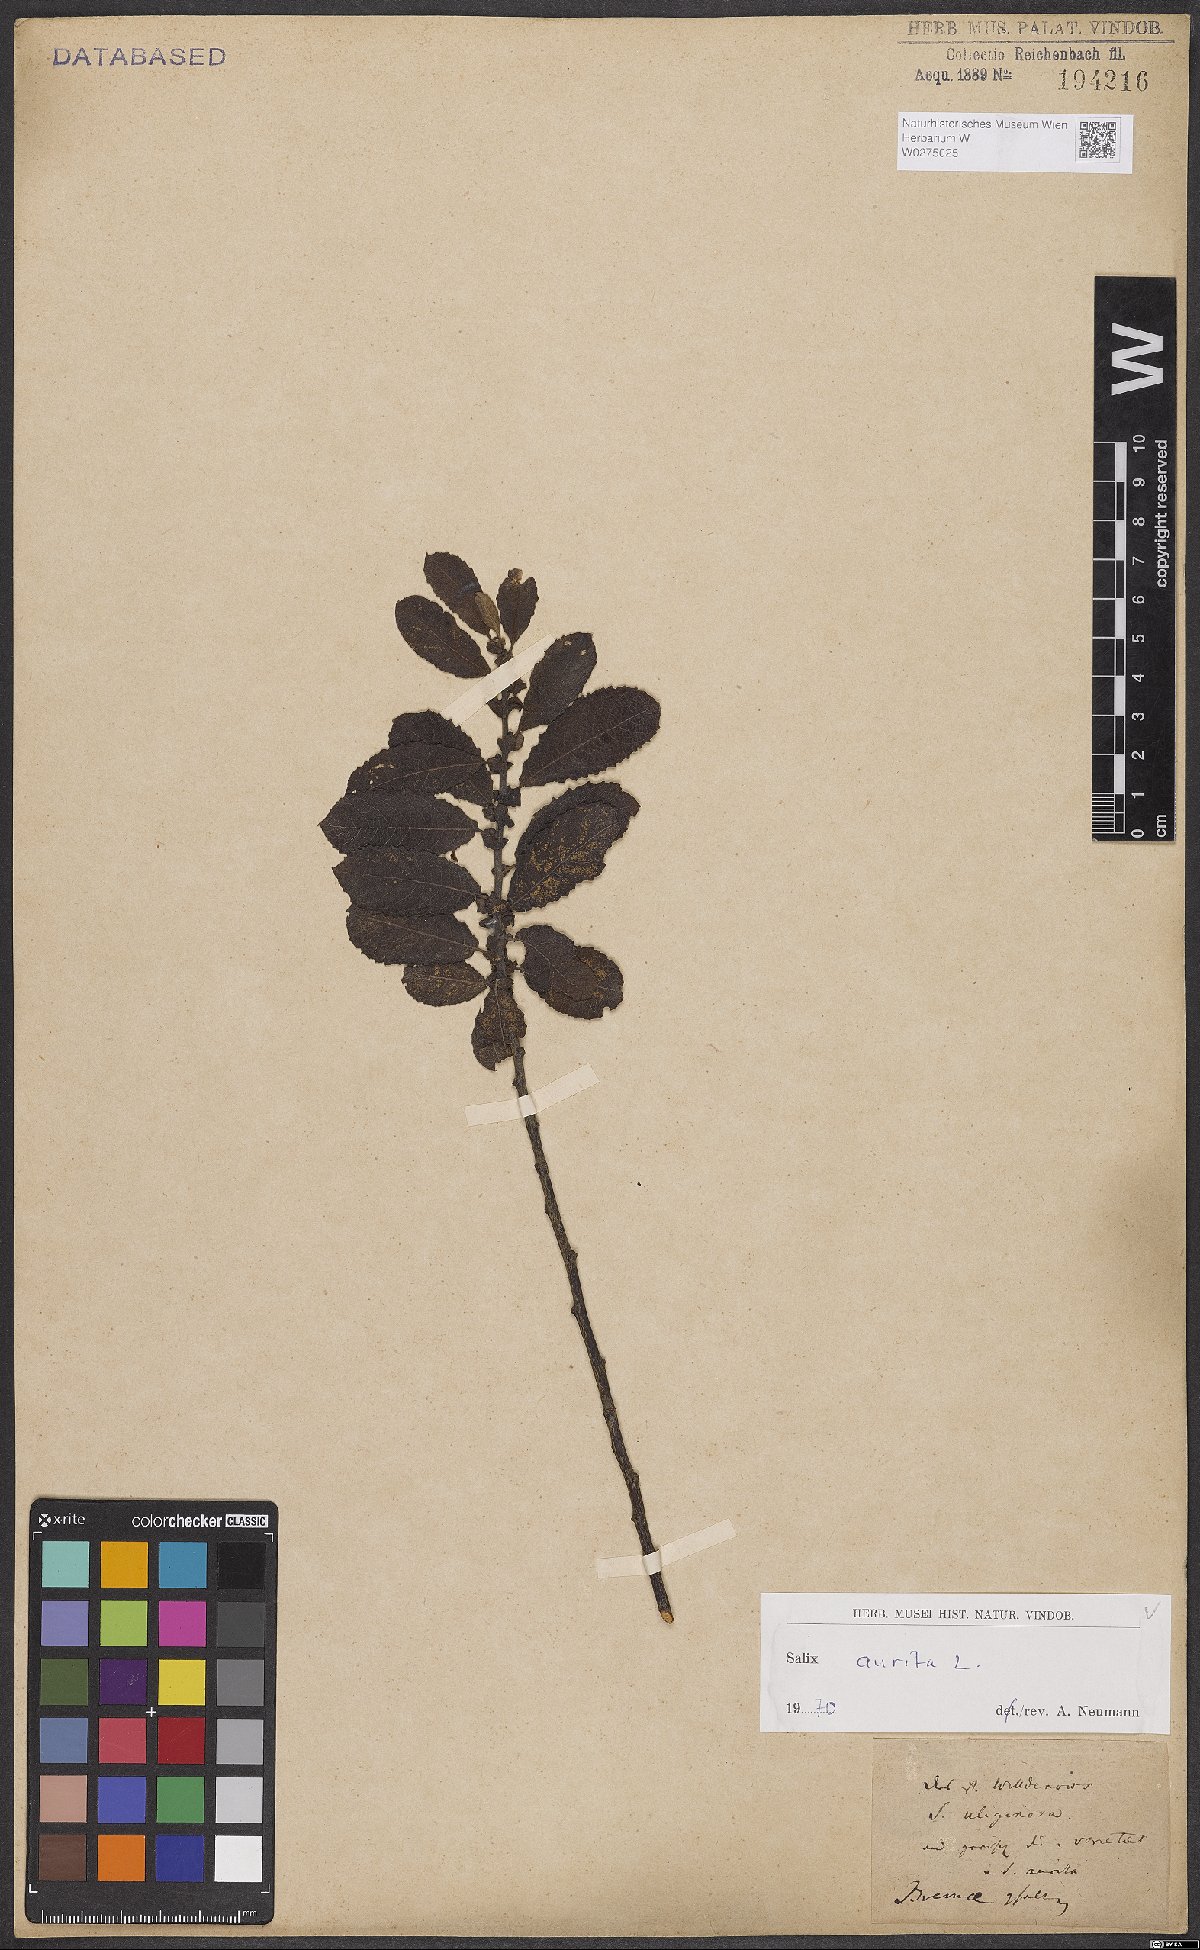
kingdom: Plantae
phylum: Tracheophyta
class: Magnoliopsida
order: Malpighiales
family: Salicaceae
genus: Salix
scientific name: Salix aurita
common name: Eared willow
